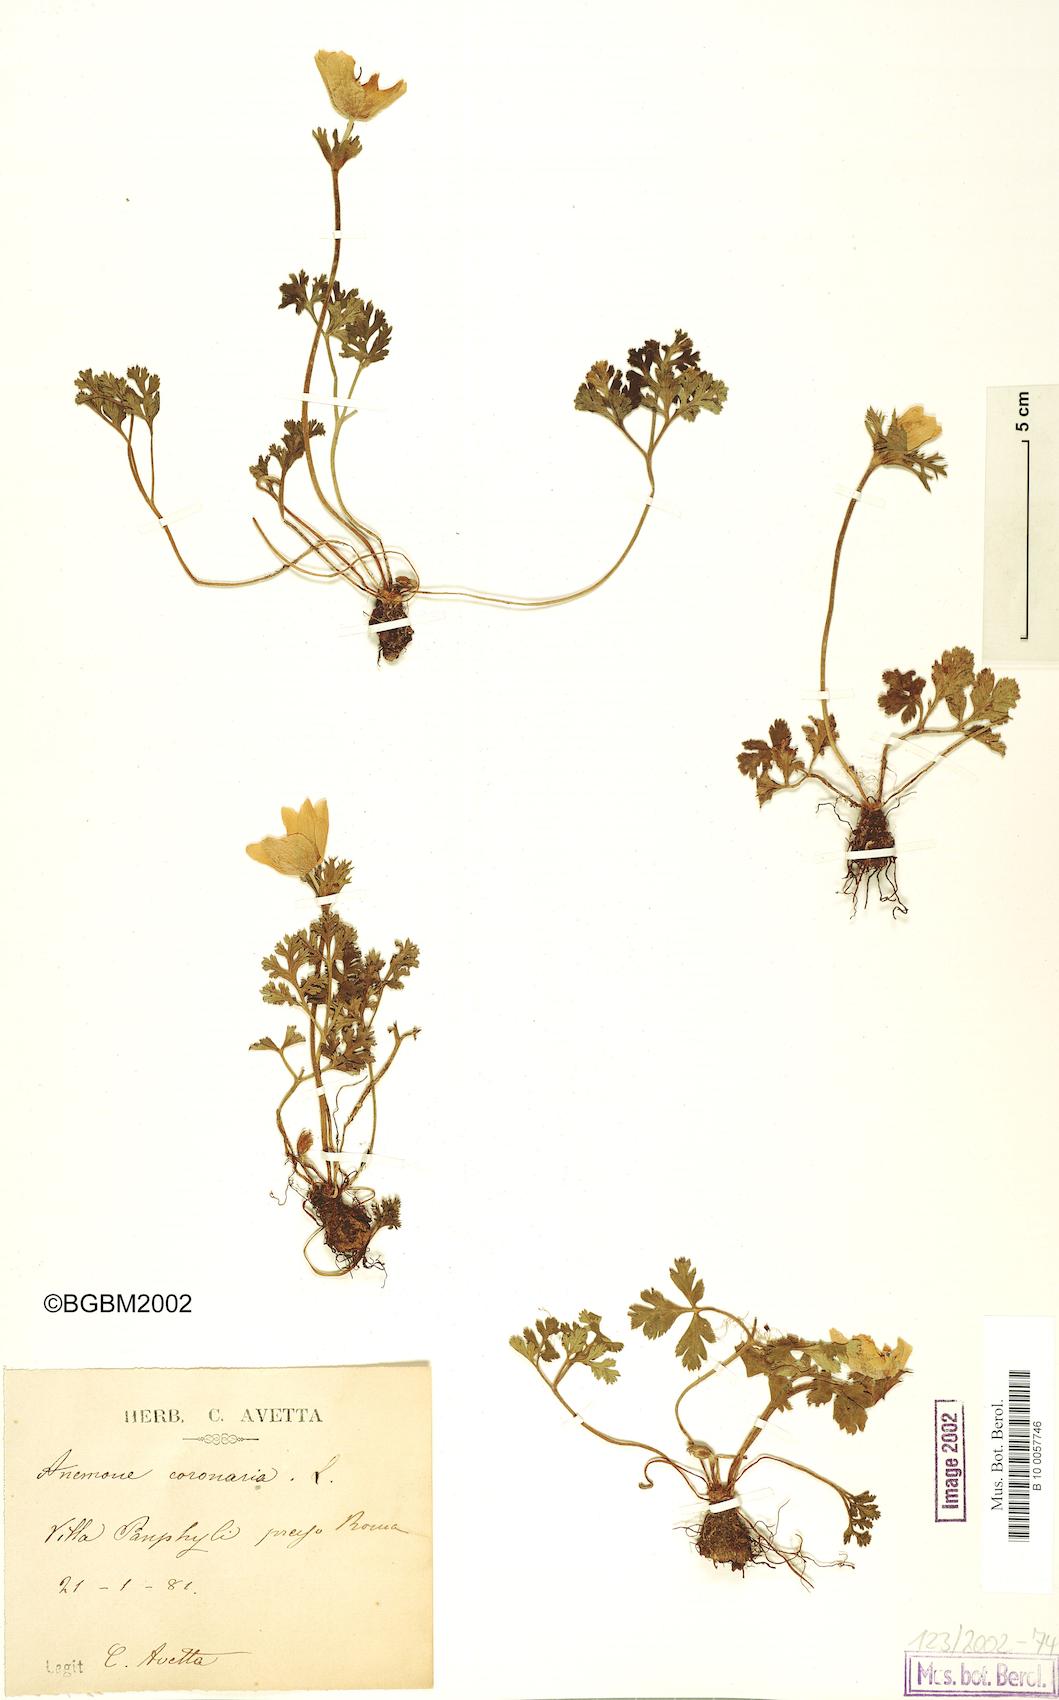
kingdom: Plantae
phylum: Tracheophyta
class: Magnoliopsida
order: Ranunculales
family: Ranunculaceae
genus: Anemone
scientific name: Anemone coronaria
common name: Poppy anemone
